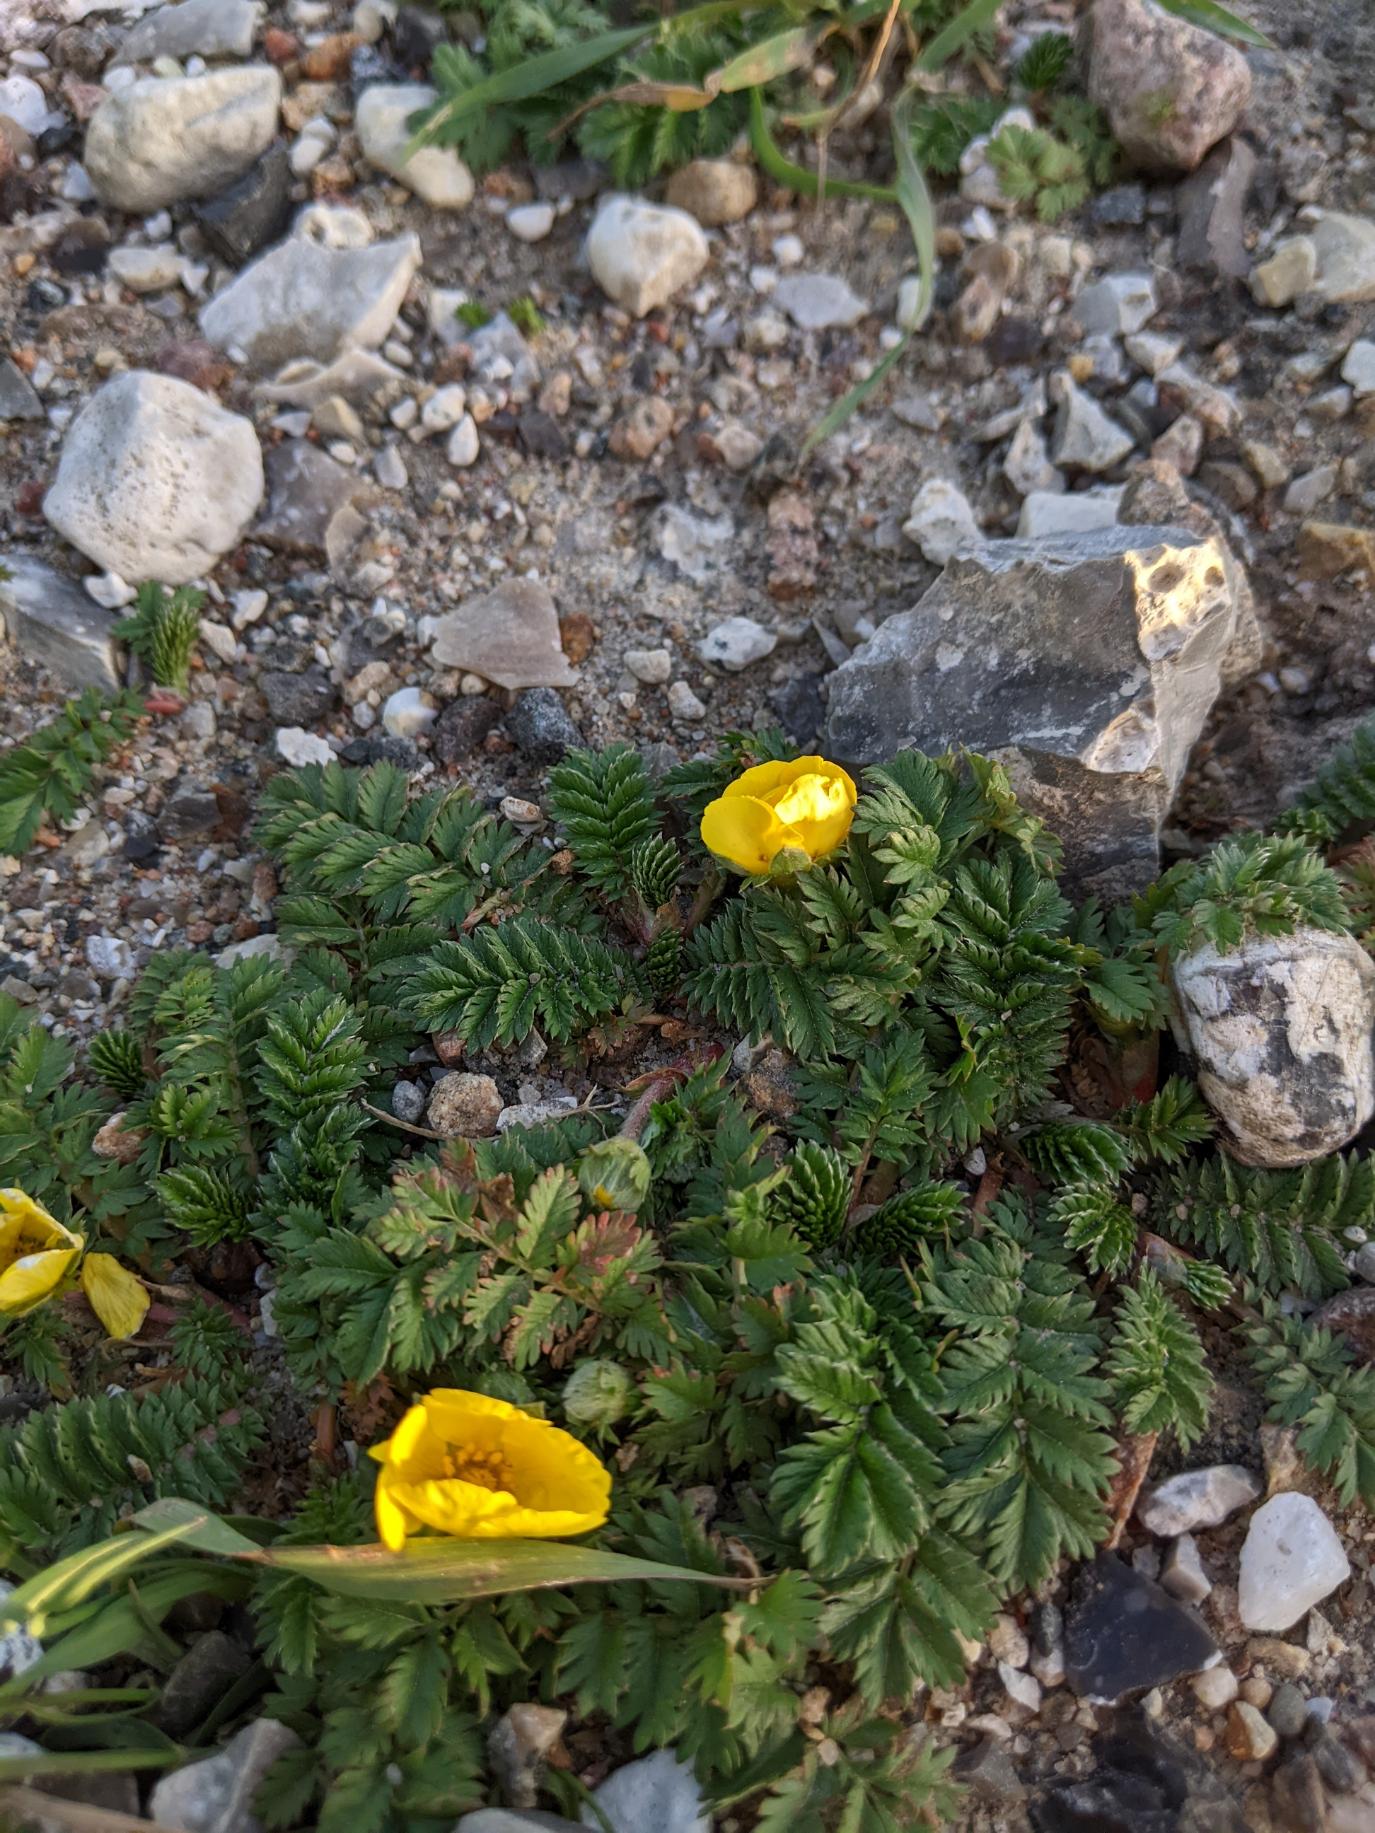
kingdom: Plantae
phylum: Tracheophyta
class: Magnoliopsida
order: Rosales
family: Rosaceae
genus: Argentina
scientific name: Argentina anserina
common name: Gåsepotentil
